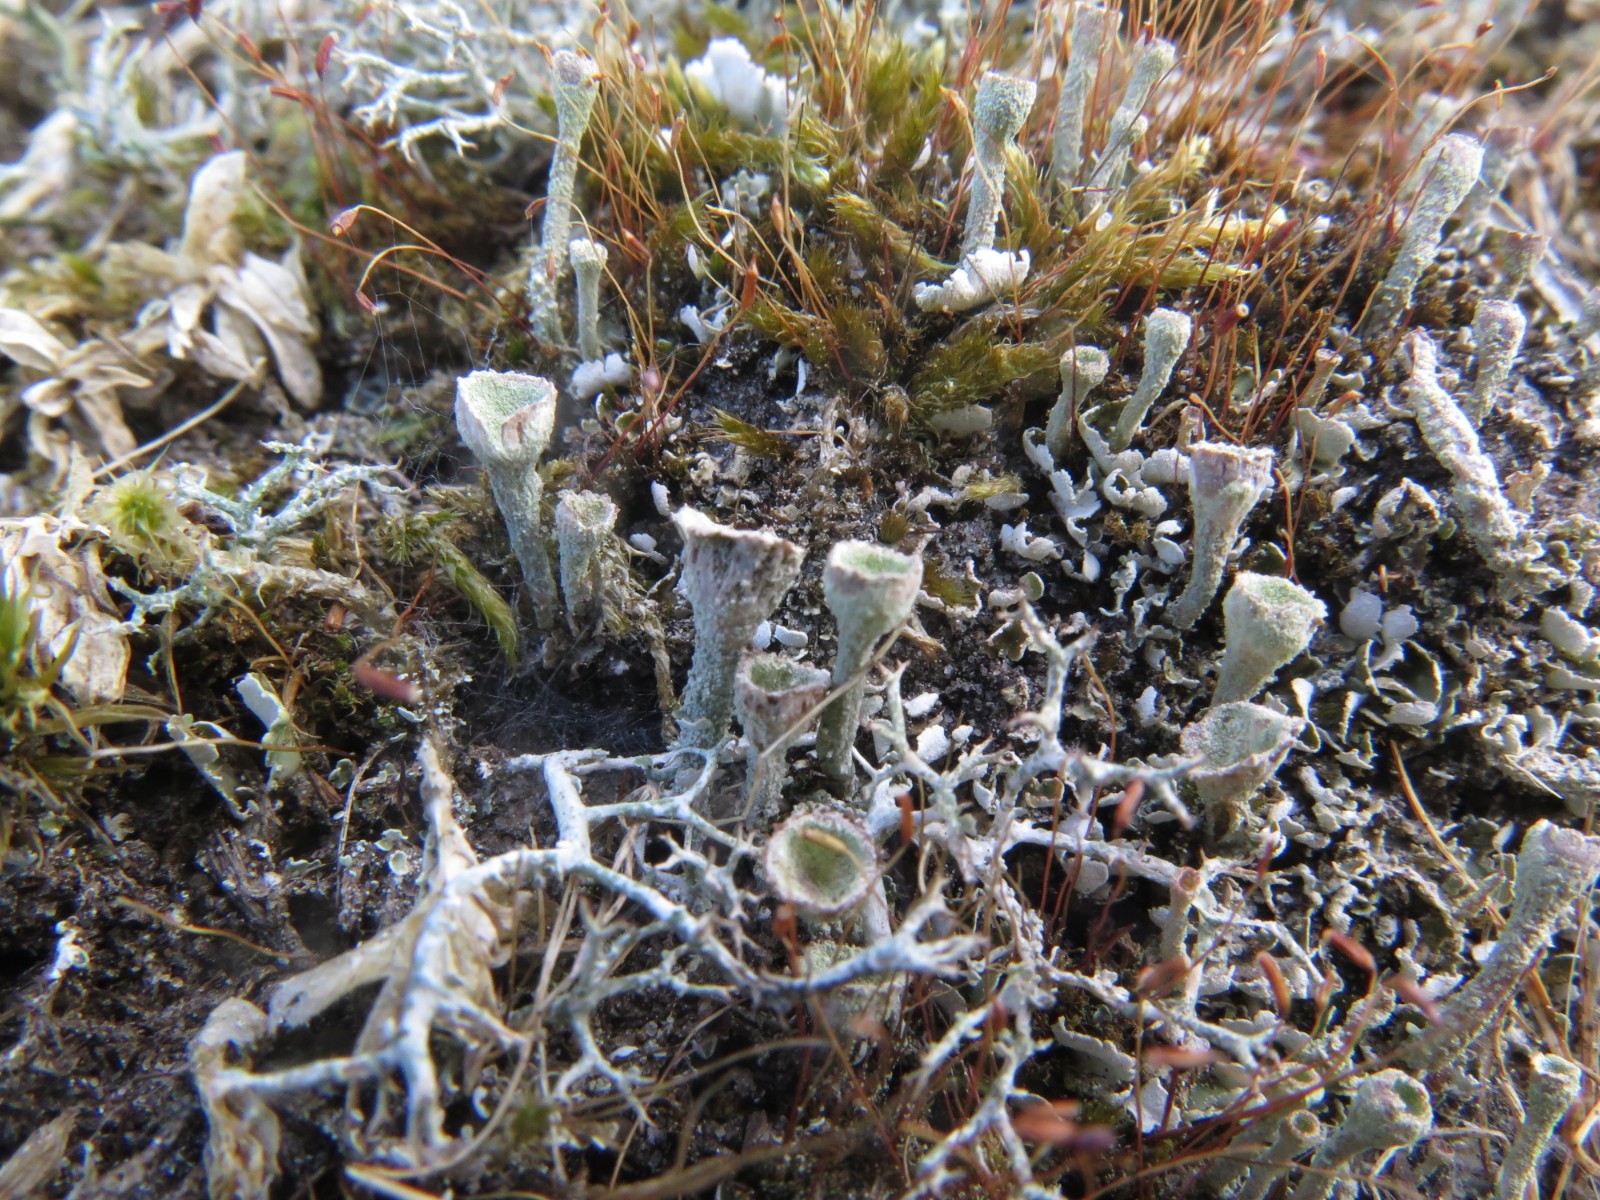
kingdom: Fungi
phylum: Ascomycota
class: Lecanoromycetes
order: Lecanorales
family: Cladoniaceae
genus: Cladonia
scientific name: Cladonia humilis
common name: lav bægerlav
